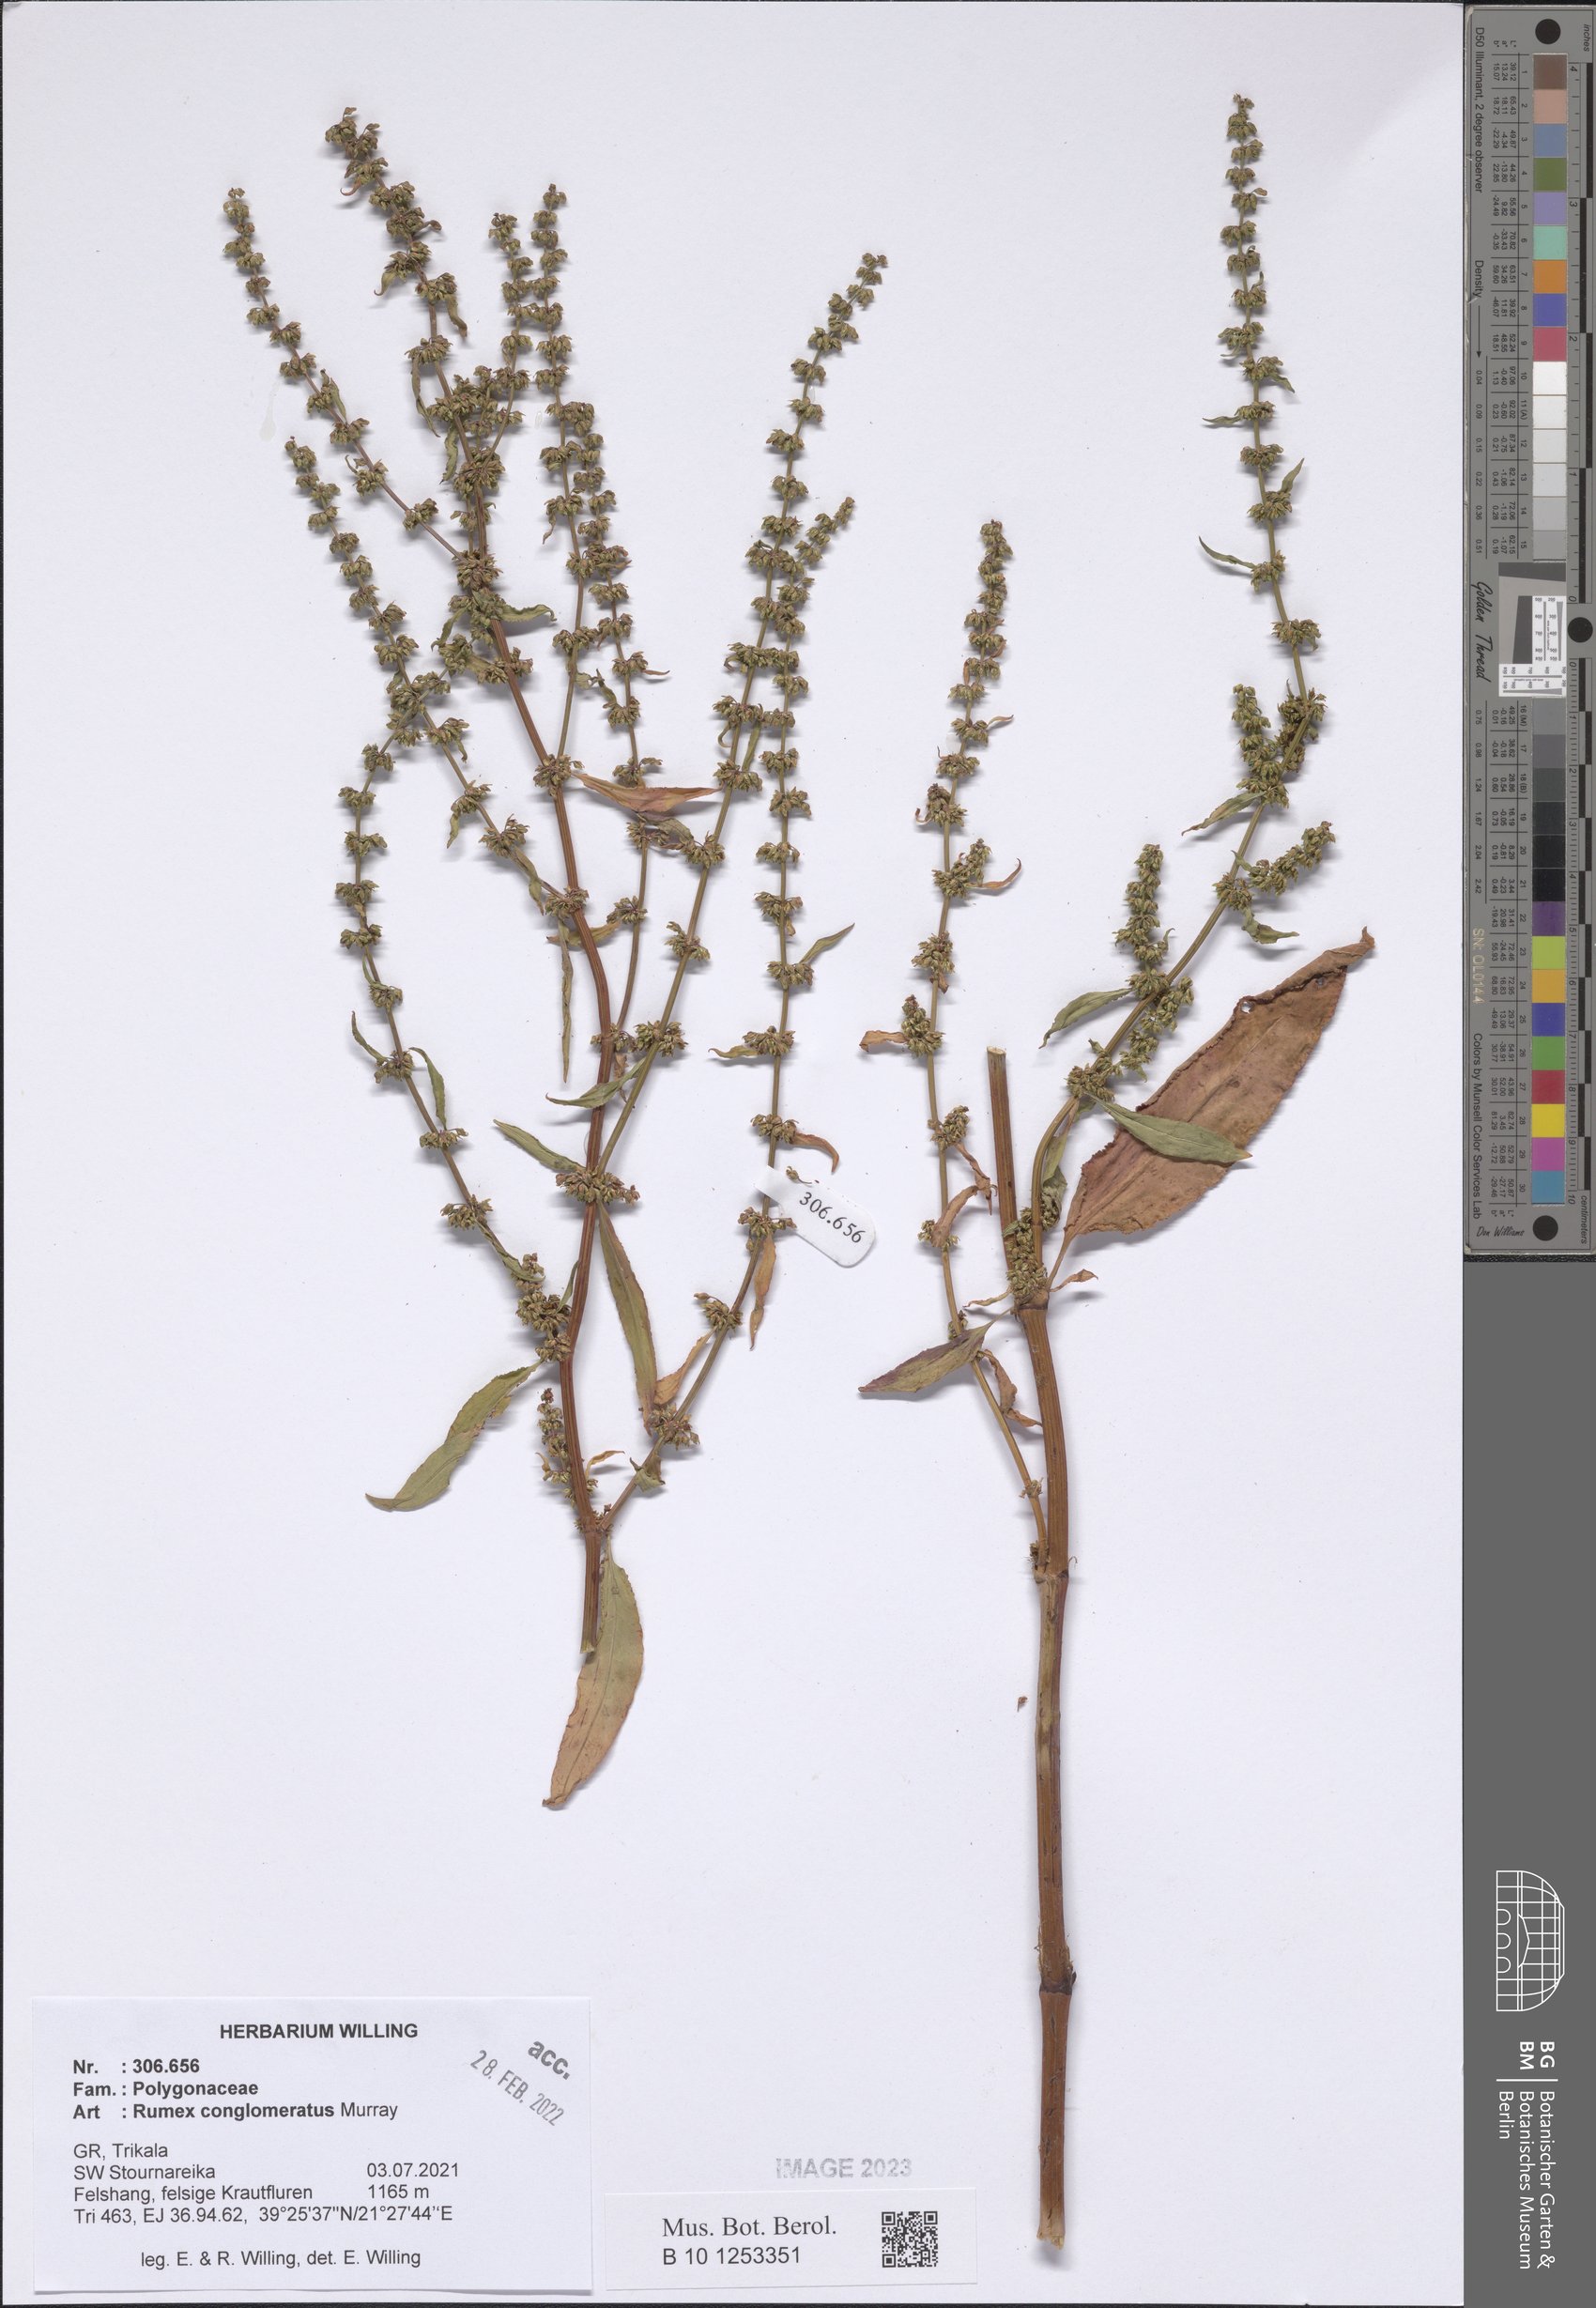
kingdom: Plantae
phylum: Tracheophyta
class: Magnoliopsida
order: Caryophyllales
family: Polygonaceae
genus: Rumex
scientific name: Rumex conglomeratus
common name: Clustered dock
